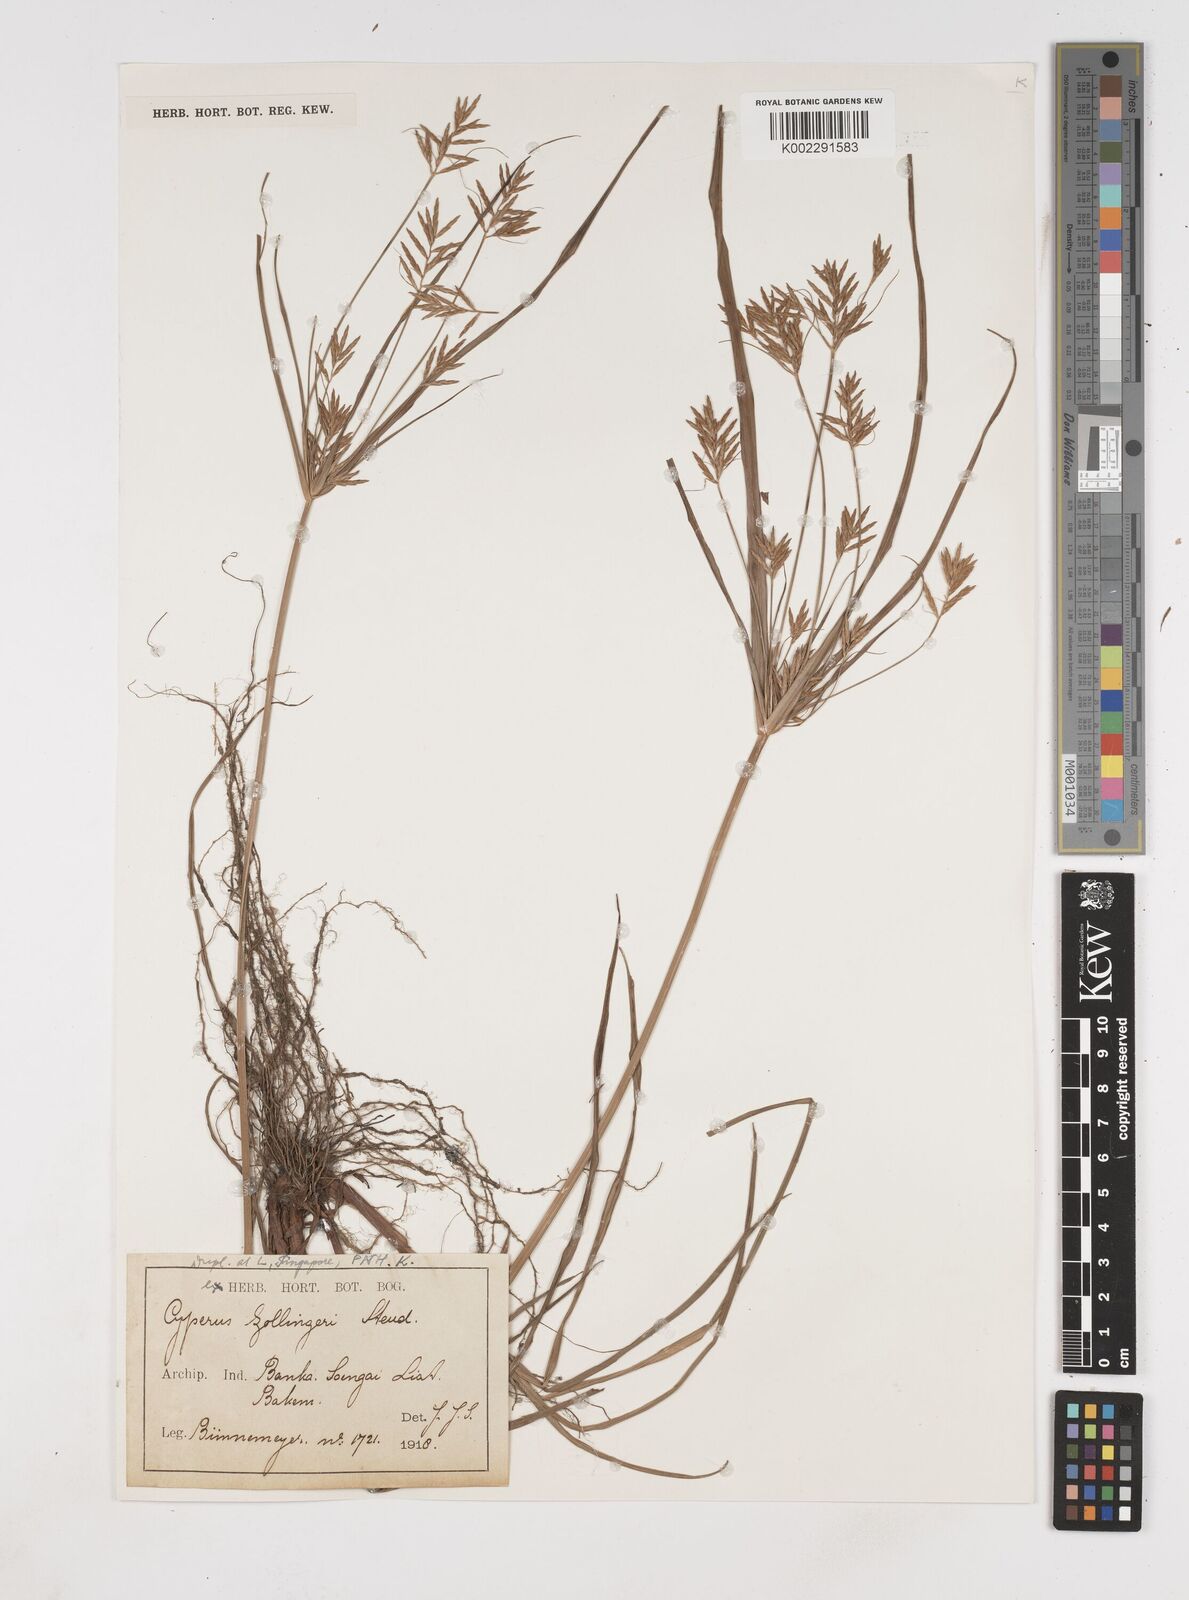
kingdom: Plantae
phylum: Tracheophyta
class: Liliopsida
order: Poales
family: Cyperaceae
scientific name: Cyperaceae
